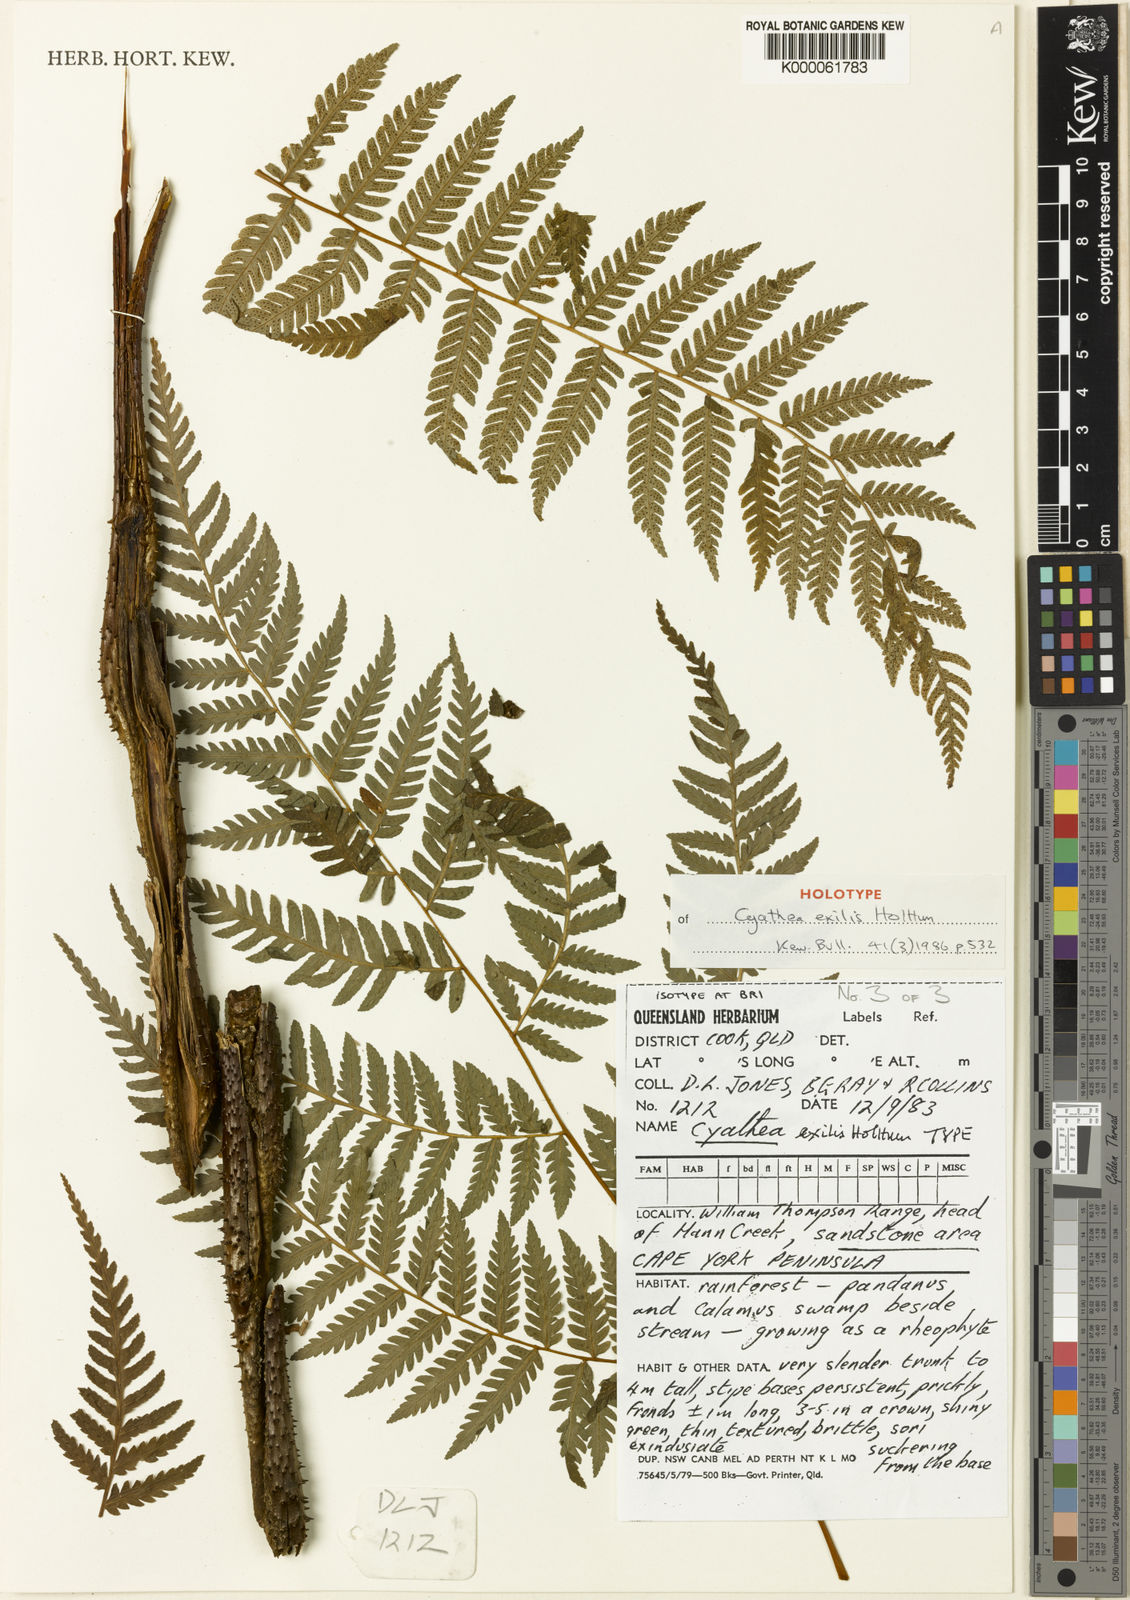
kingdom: Plantae
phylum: Tracheophyta
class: Polypodiopsida
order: Cyatheales
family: Cyatheaceae
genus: Alsophila
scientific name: Alsophila exilis
